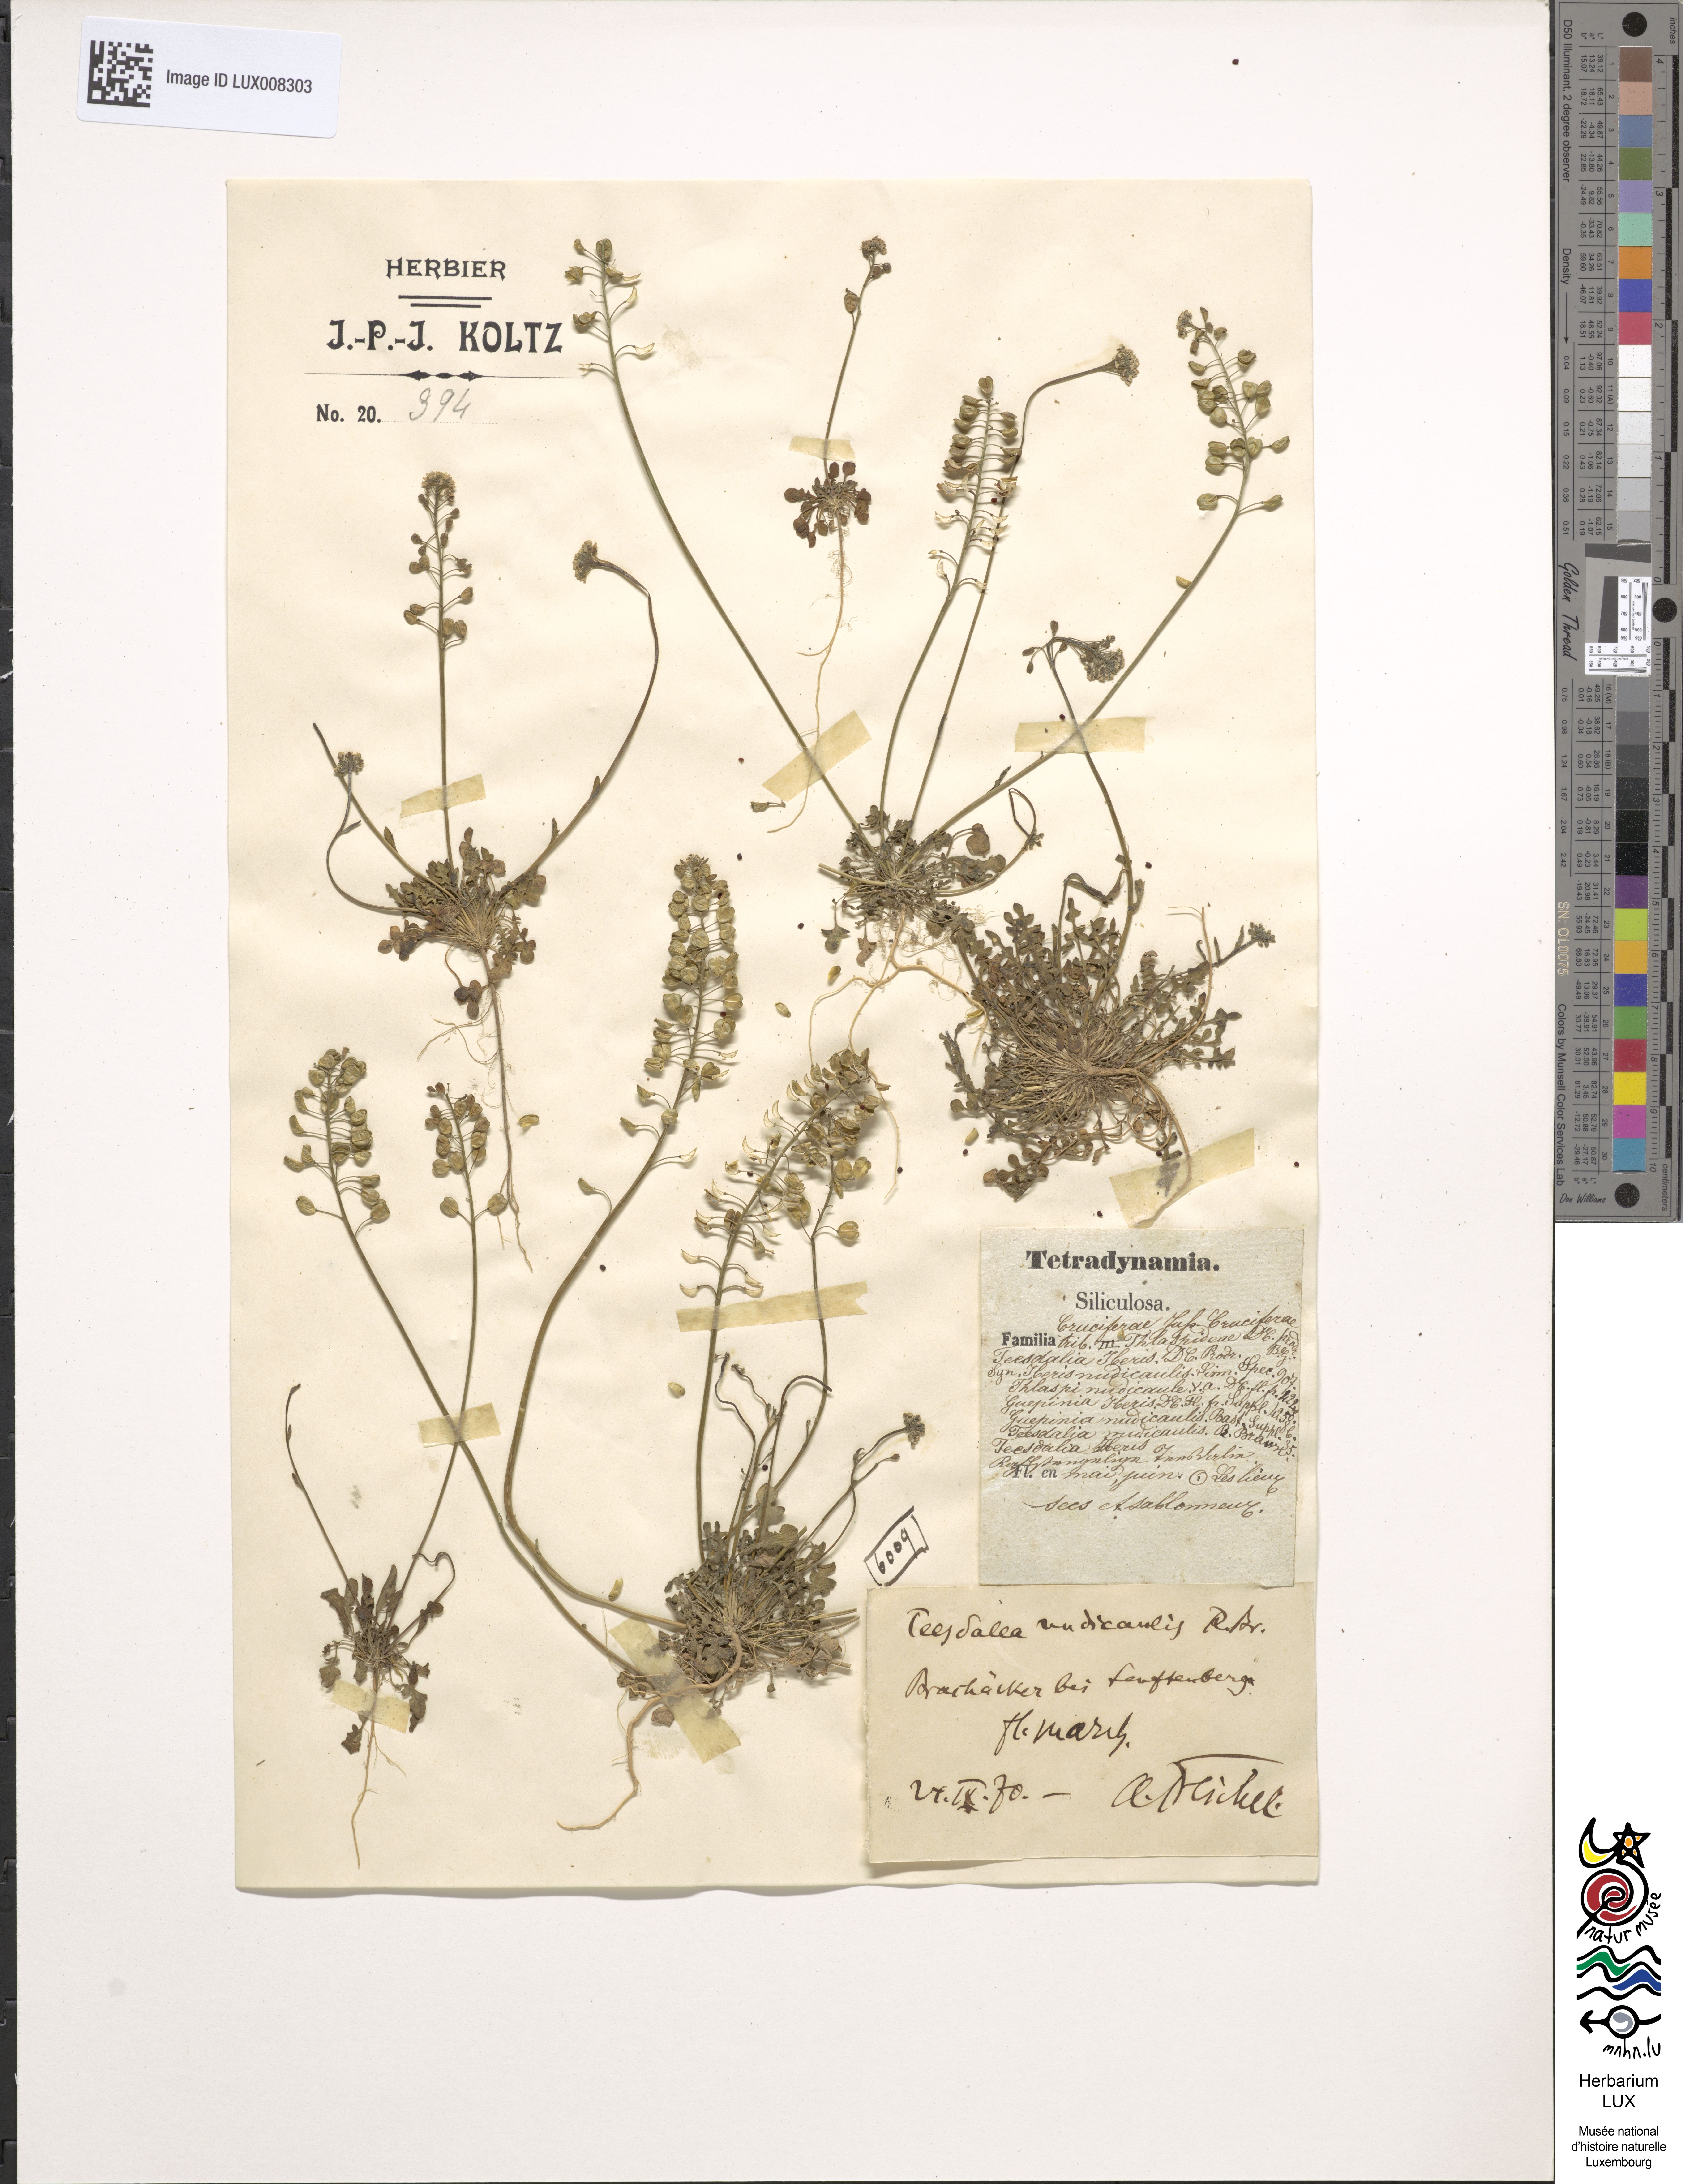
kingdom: Plantae
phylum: Tracheophyta
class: Magnoliopsida
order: Brassicales
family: Brassicaceae
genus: Teesdalia
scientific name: Teesdalia nudicaulis
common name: Shepherd's cress
